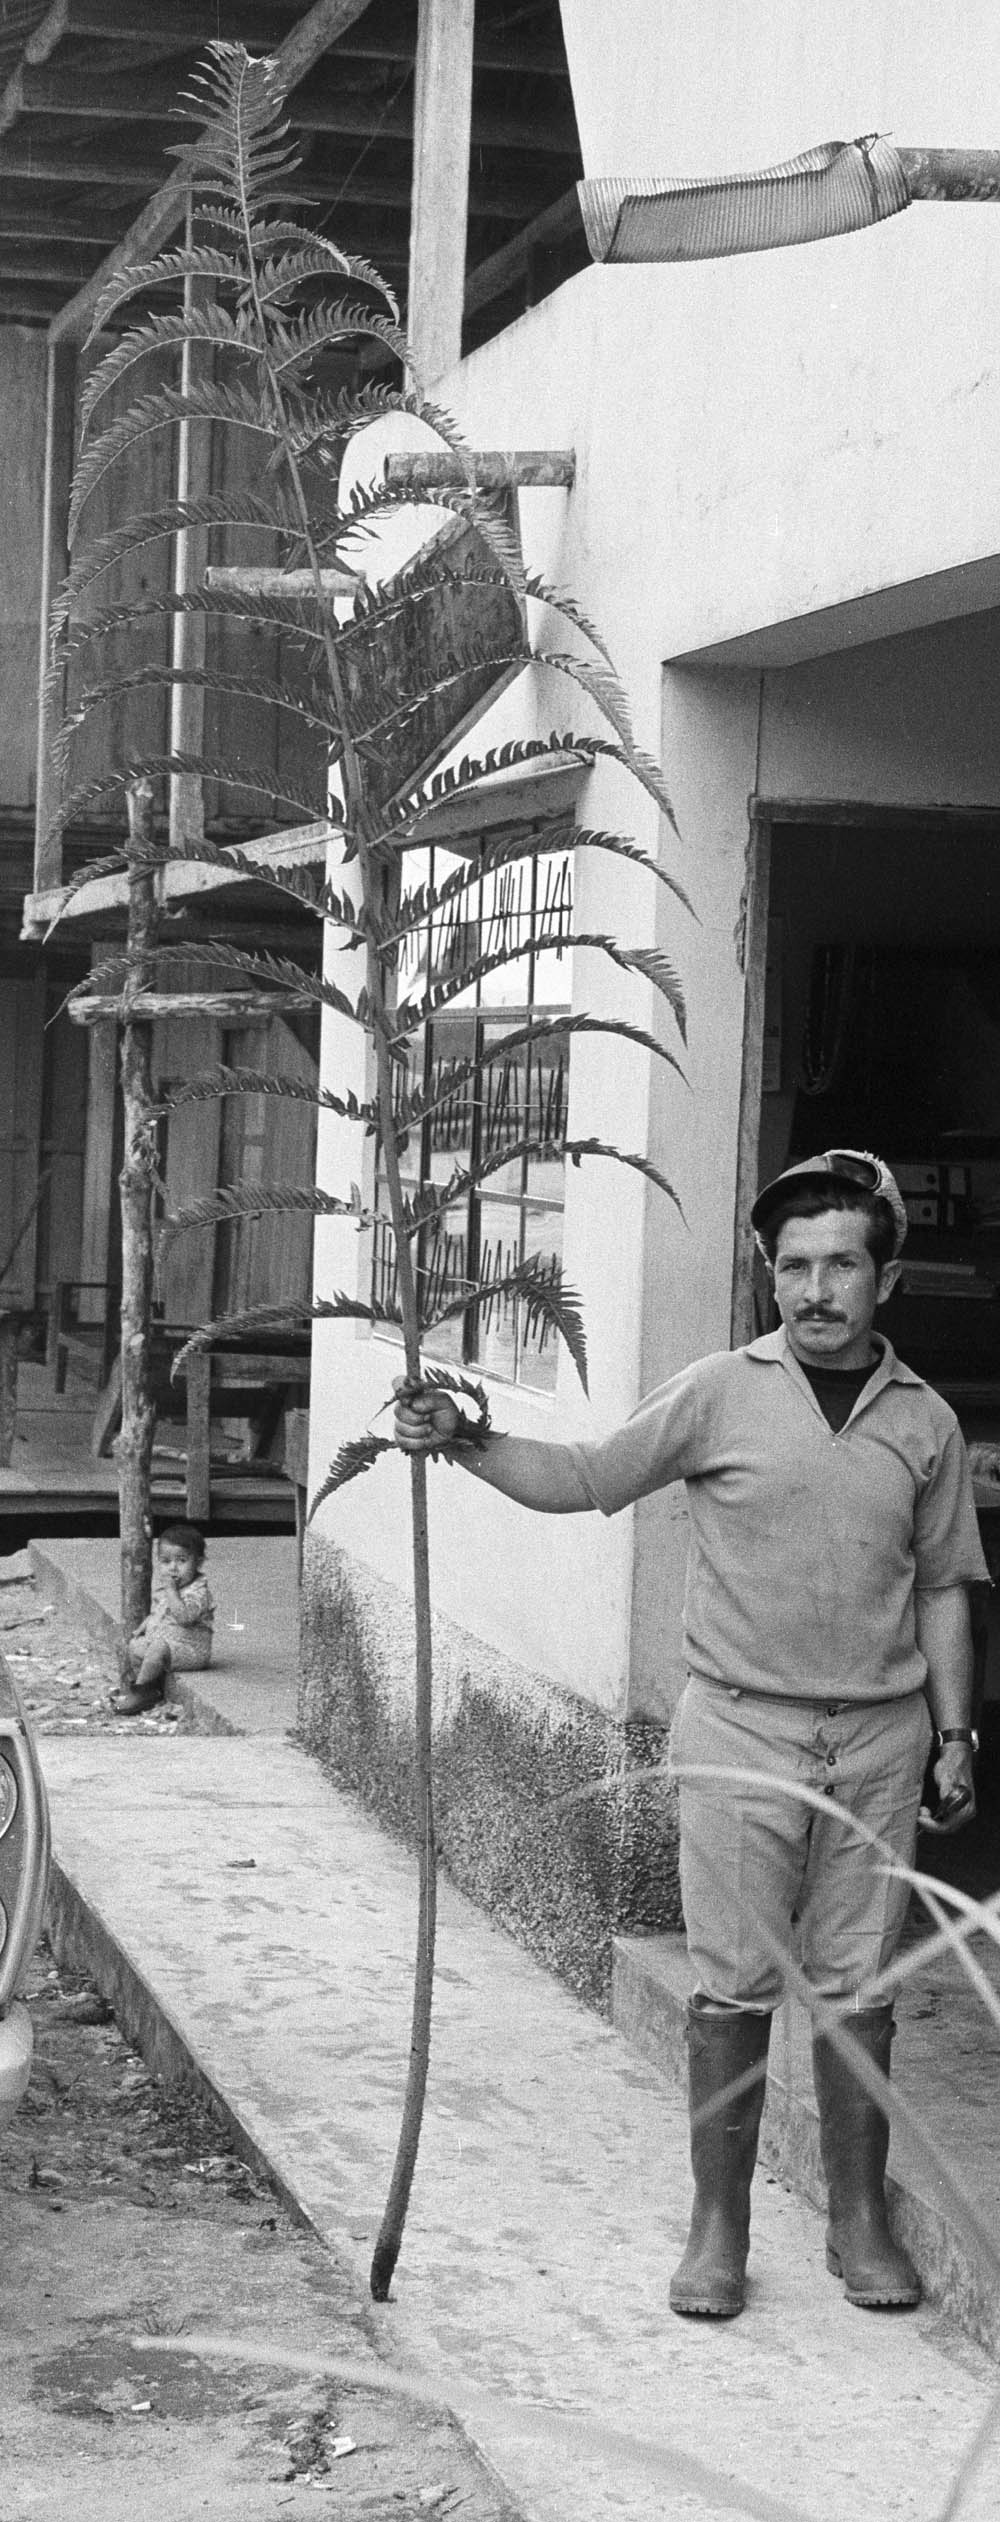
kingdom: Plantae
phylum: Tracheophyta
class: Polypodiopsida
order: Cyatheales
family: Cyatheaceae
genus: Cyathea
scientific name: Cyathea horrida
